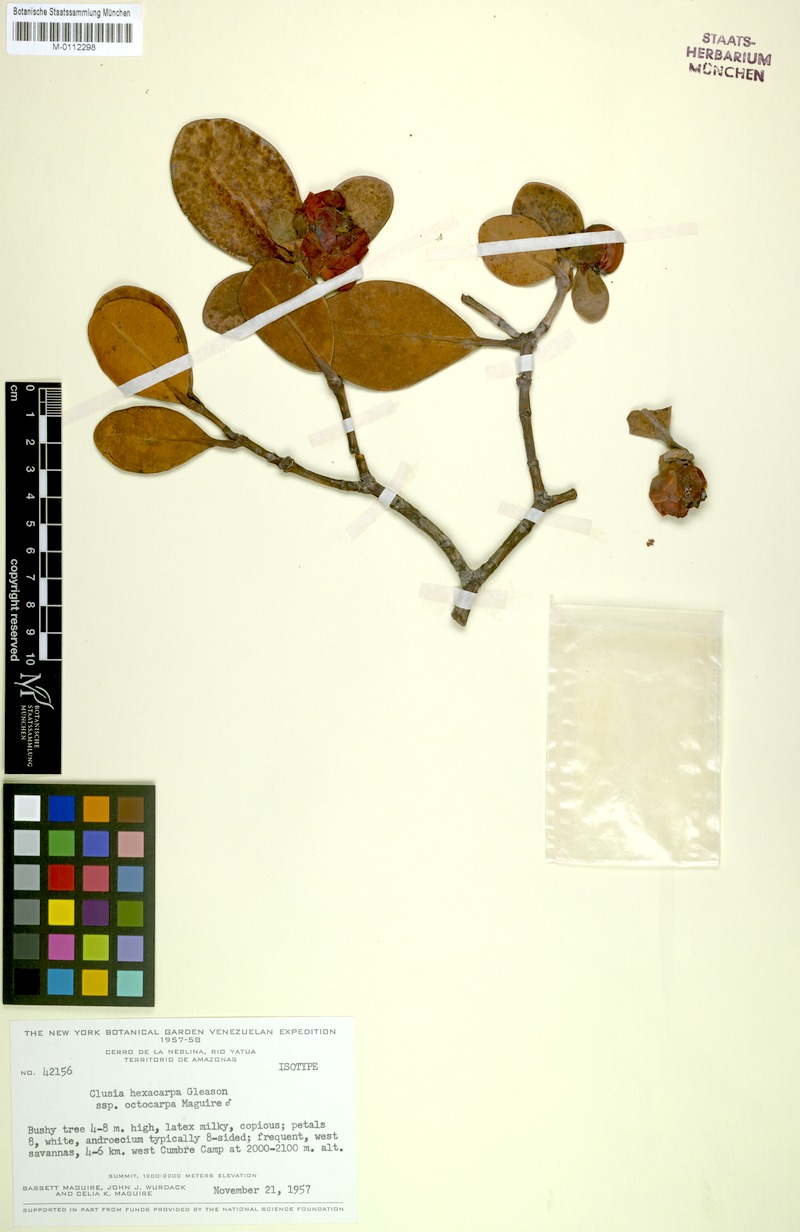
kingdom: Plantae
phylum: Tracheophyta
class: Magnoliopsida
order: Malpighiales
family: Clusiaceae
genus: Clusia
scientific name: Clusia hexacarpa
